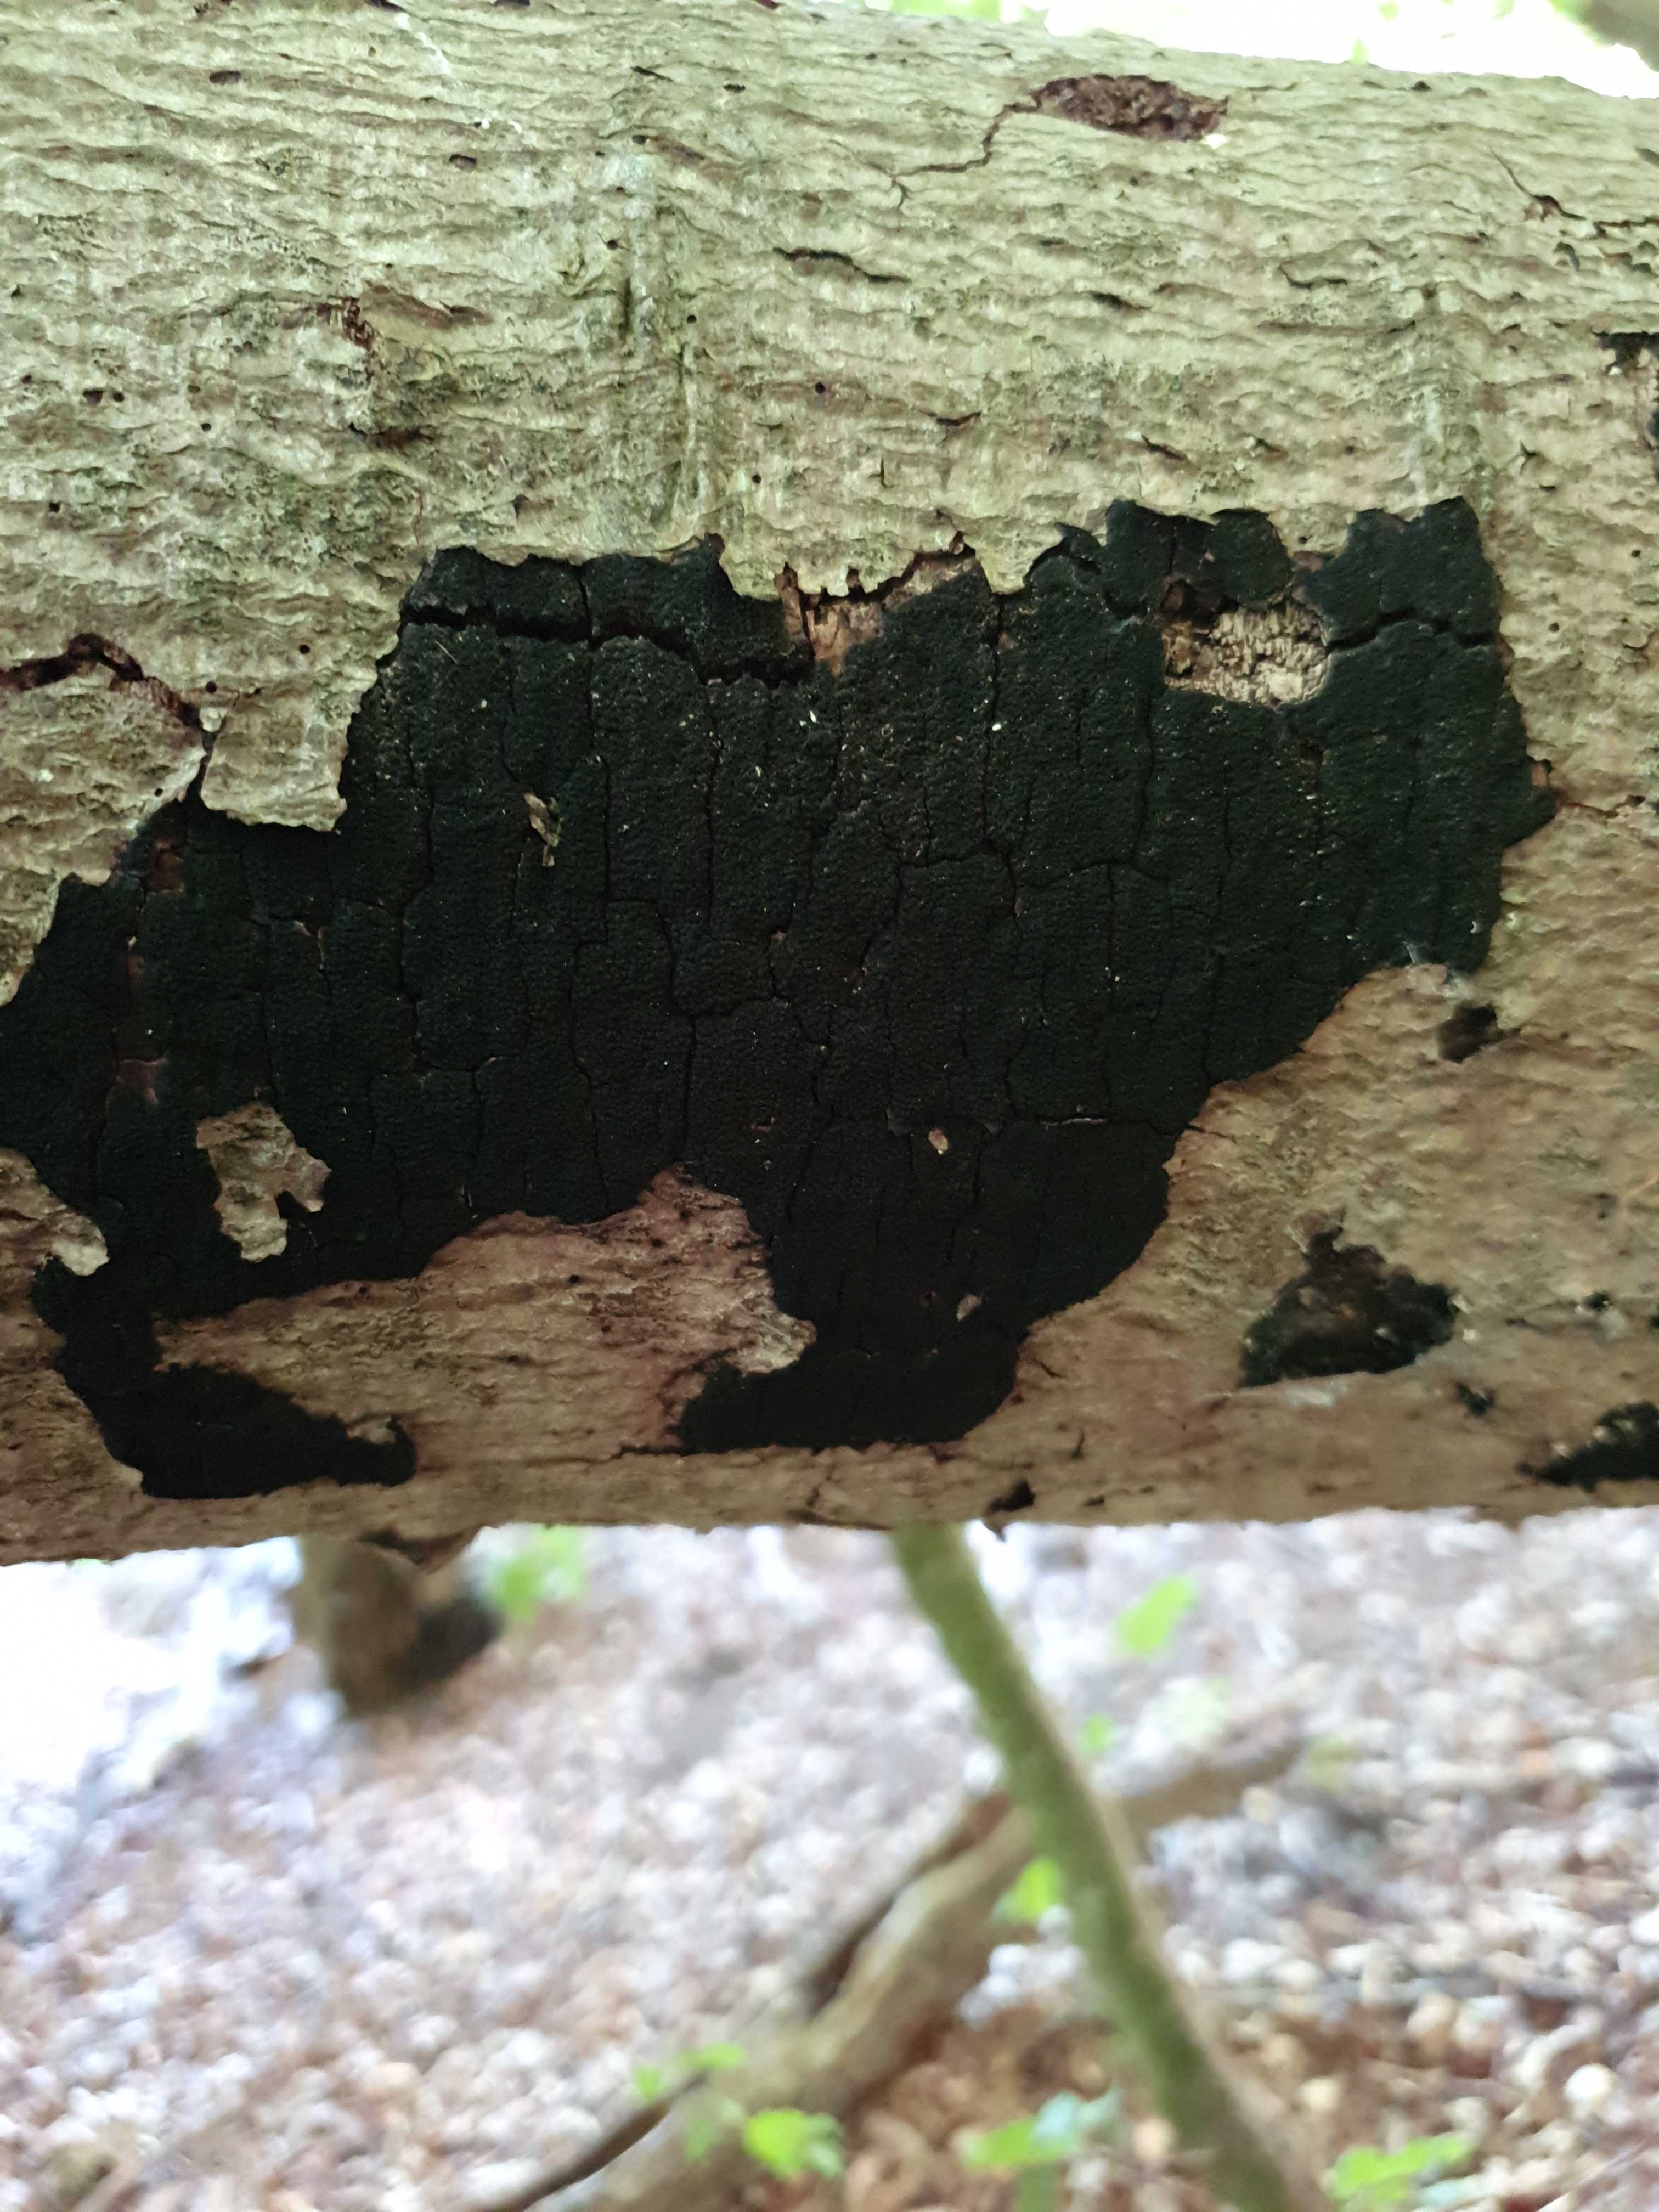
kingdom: Fungi
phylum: Ascomycota
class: Sordariomycetes
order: Xylariales
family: Diatrypaceae
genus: Eutypa
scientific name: Eutypa spinosa
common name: grov kulskorpe
